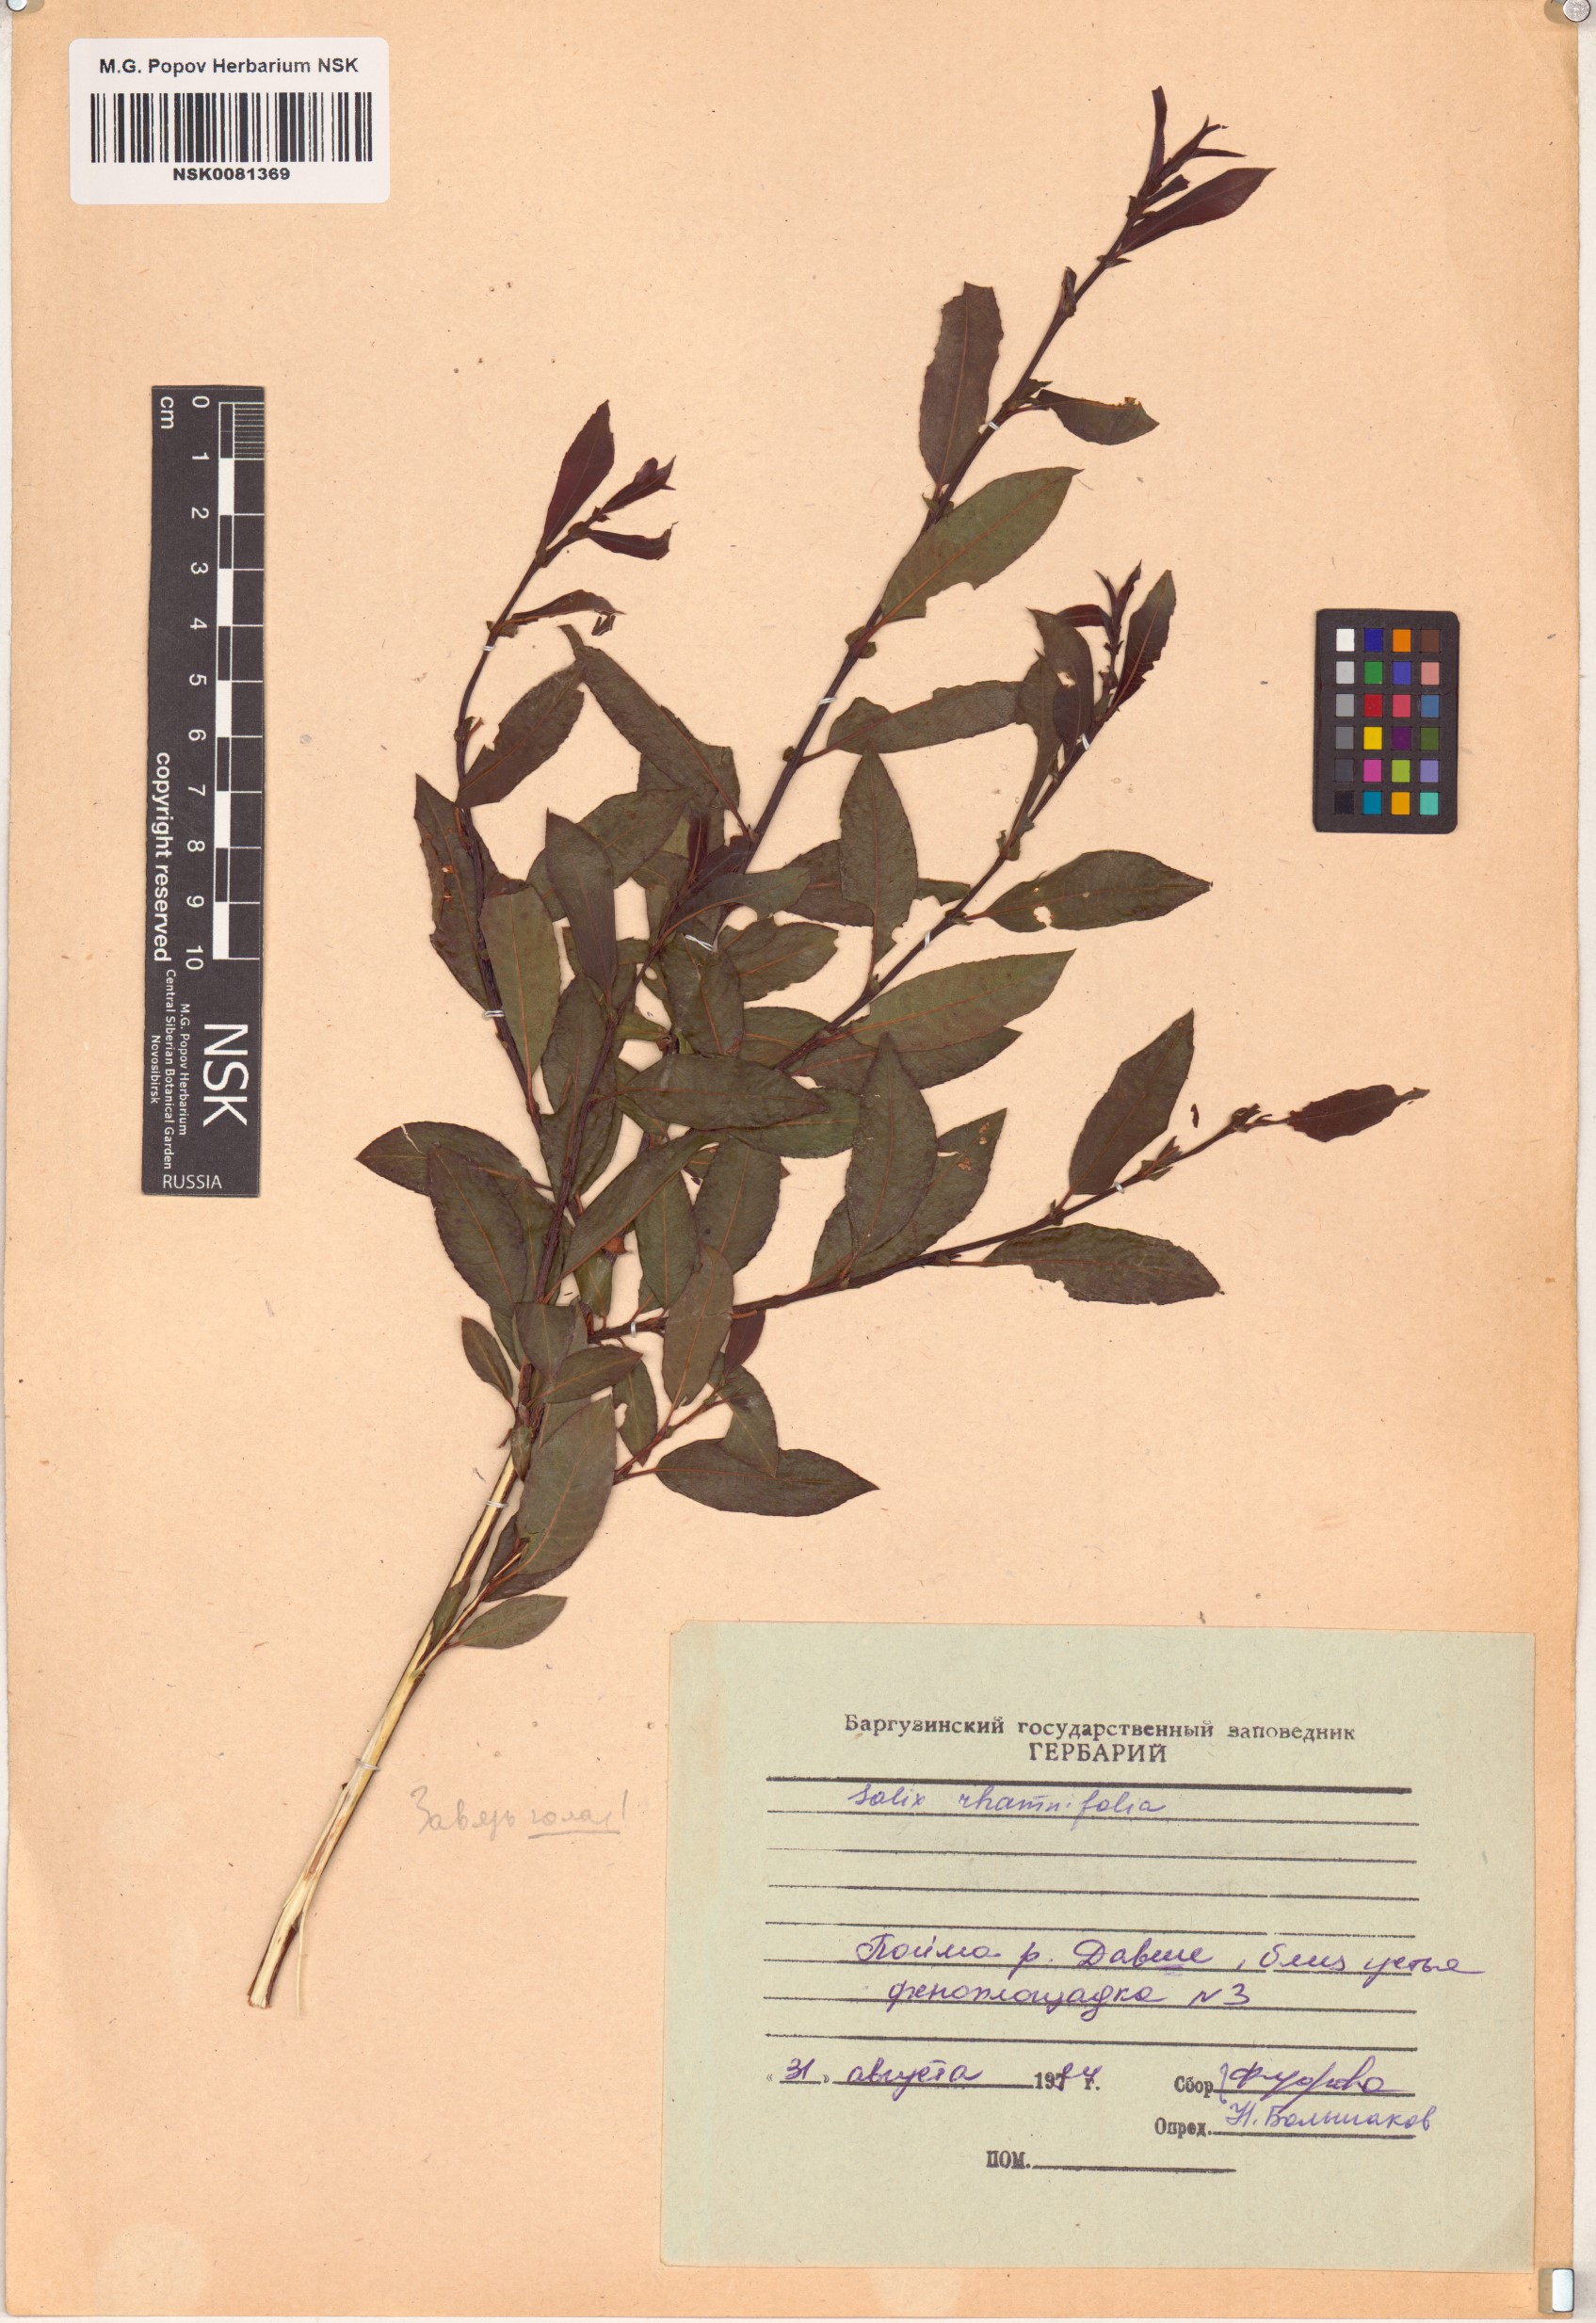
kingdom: Plantae
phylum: Tracheophyta
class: Magnoliopsida
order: Malpighiales
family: Salicaceae
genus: Salix
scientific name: Salix rhamnifolia
